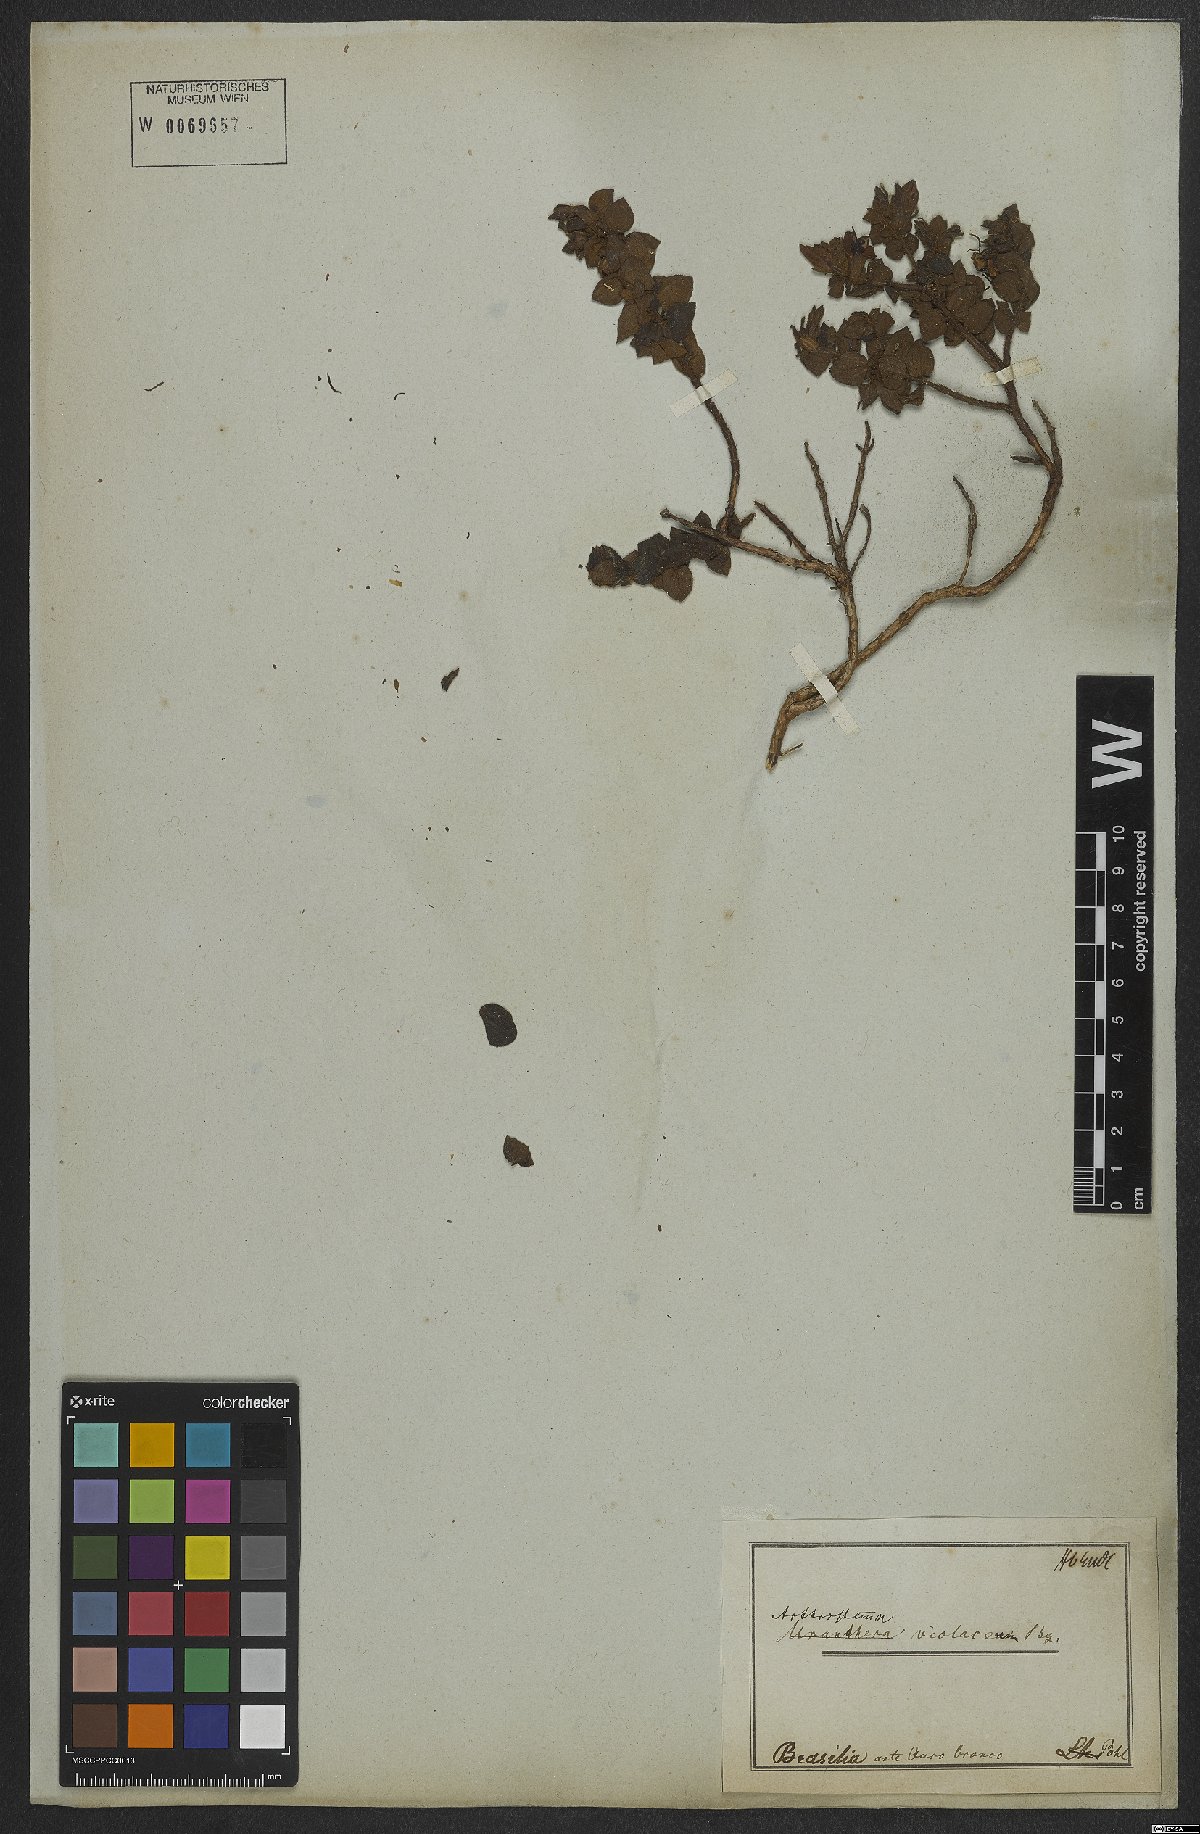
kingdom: Plantae
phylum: Tracheophyta
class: Magnoliopsida
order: Myrtales
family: Melastomataceae
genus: Miconia
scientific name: Miconia ceramicarpa
